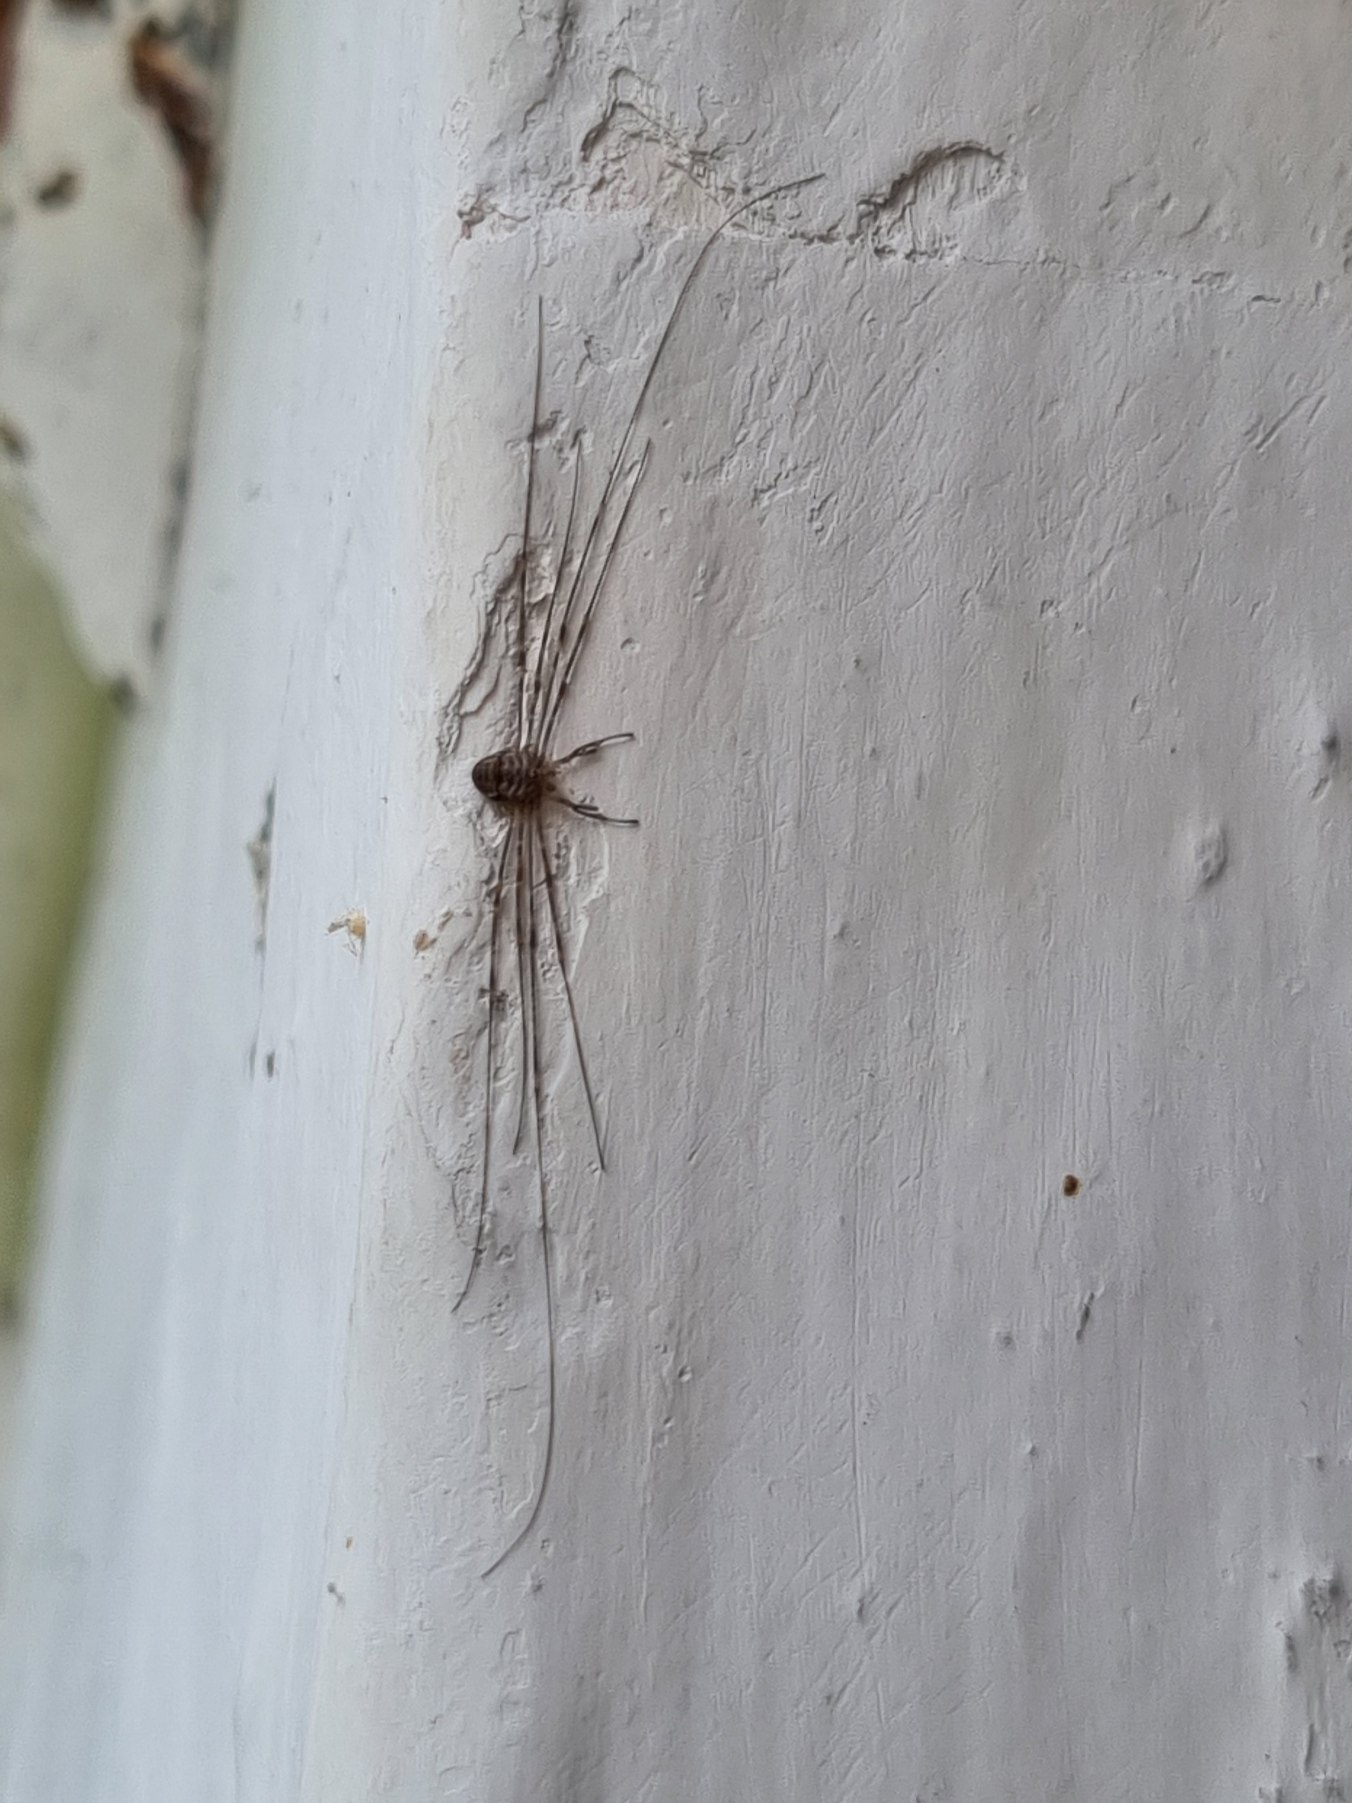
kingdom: Animalia
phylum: Arthropoda
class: Arachnida
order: Opiliones
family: Phalangiidae
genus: Dicranopalpus
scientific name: Dicranopalpus ramosus
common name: Gaffelmejer
